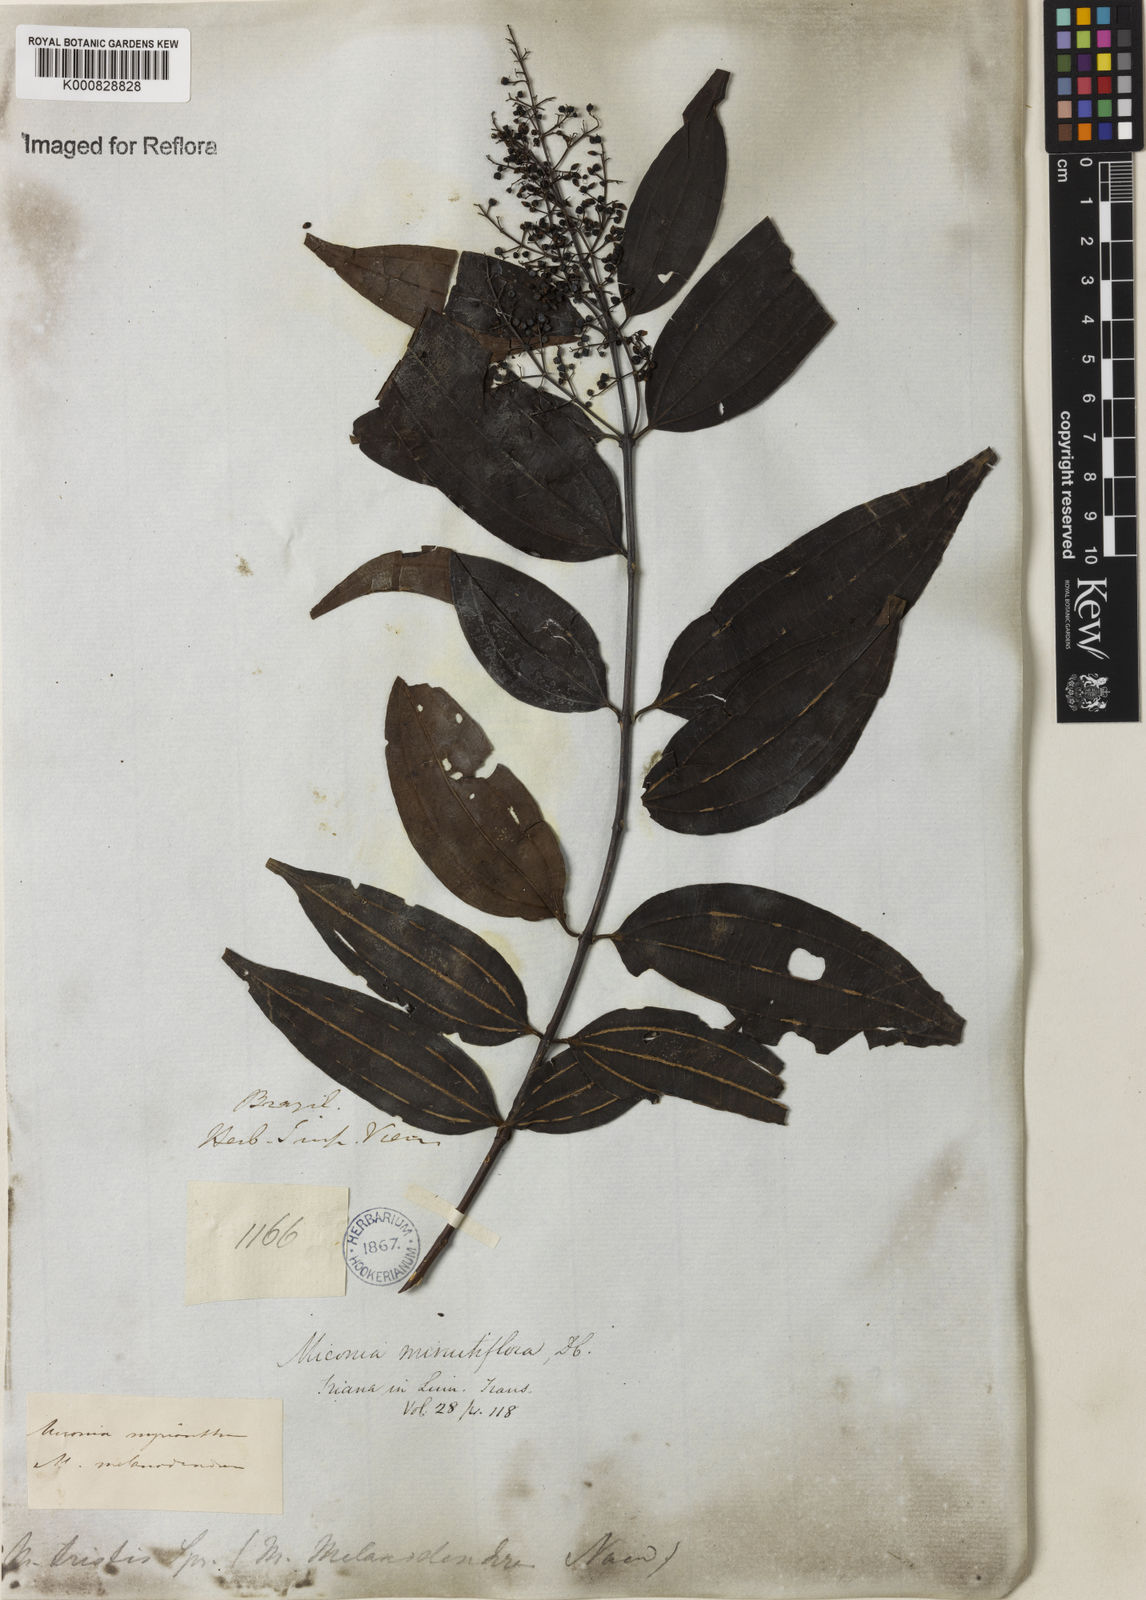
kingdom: Plantae
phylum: Tracheophyta
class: Magnoliopsida
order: Myrtales
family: Melastomataceae
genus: Miconia
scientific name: Miconia minutiflora
